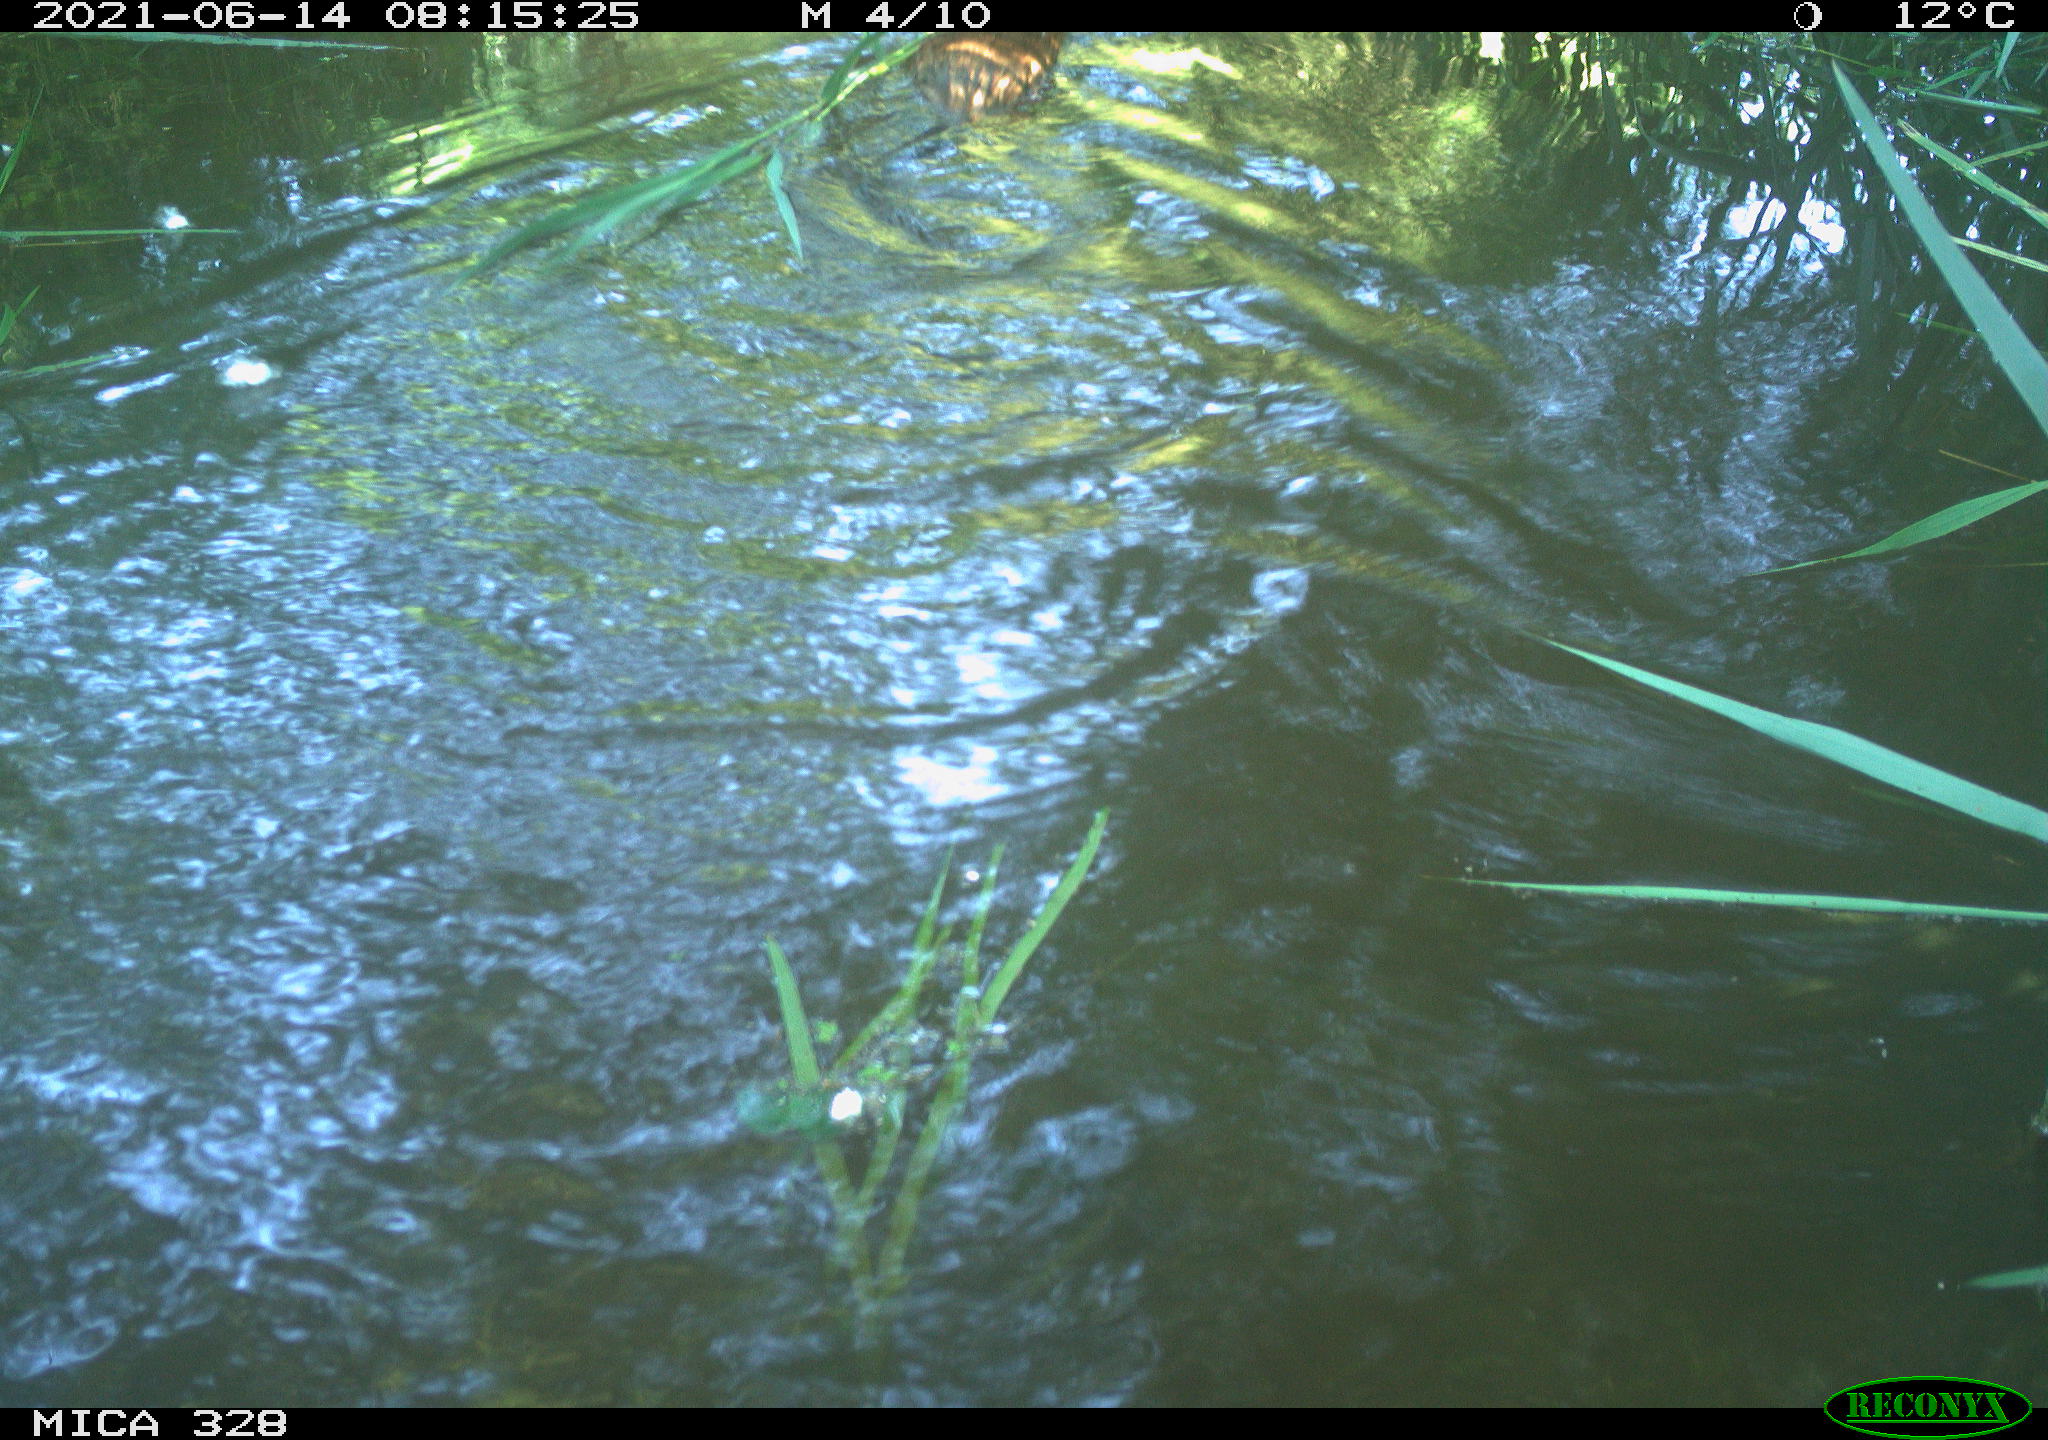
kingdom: Animalia
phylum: Chordata
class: Mammalia
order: Rodentia
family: Cricetidae
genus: Ondatra
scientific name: Ondatra zibethicus
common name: Muskrat
